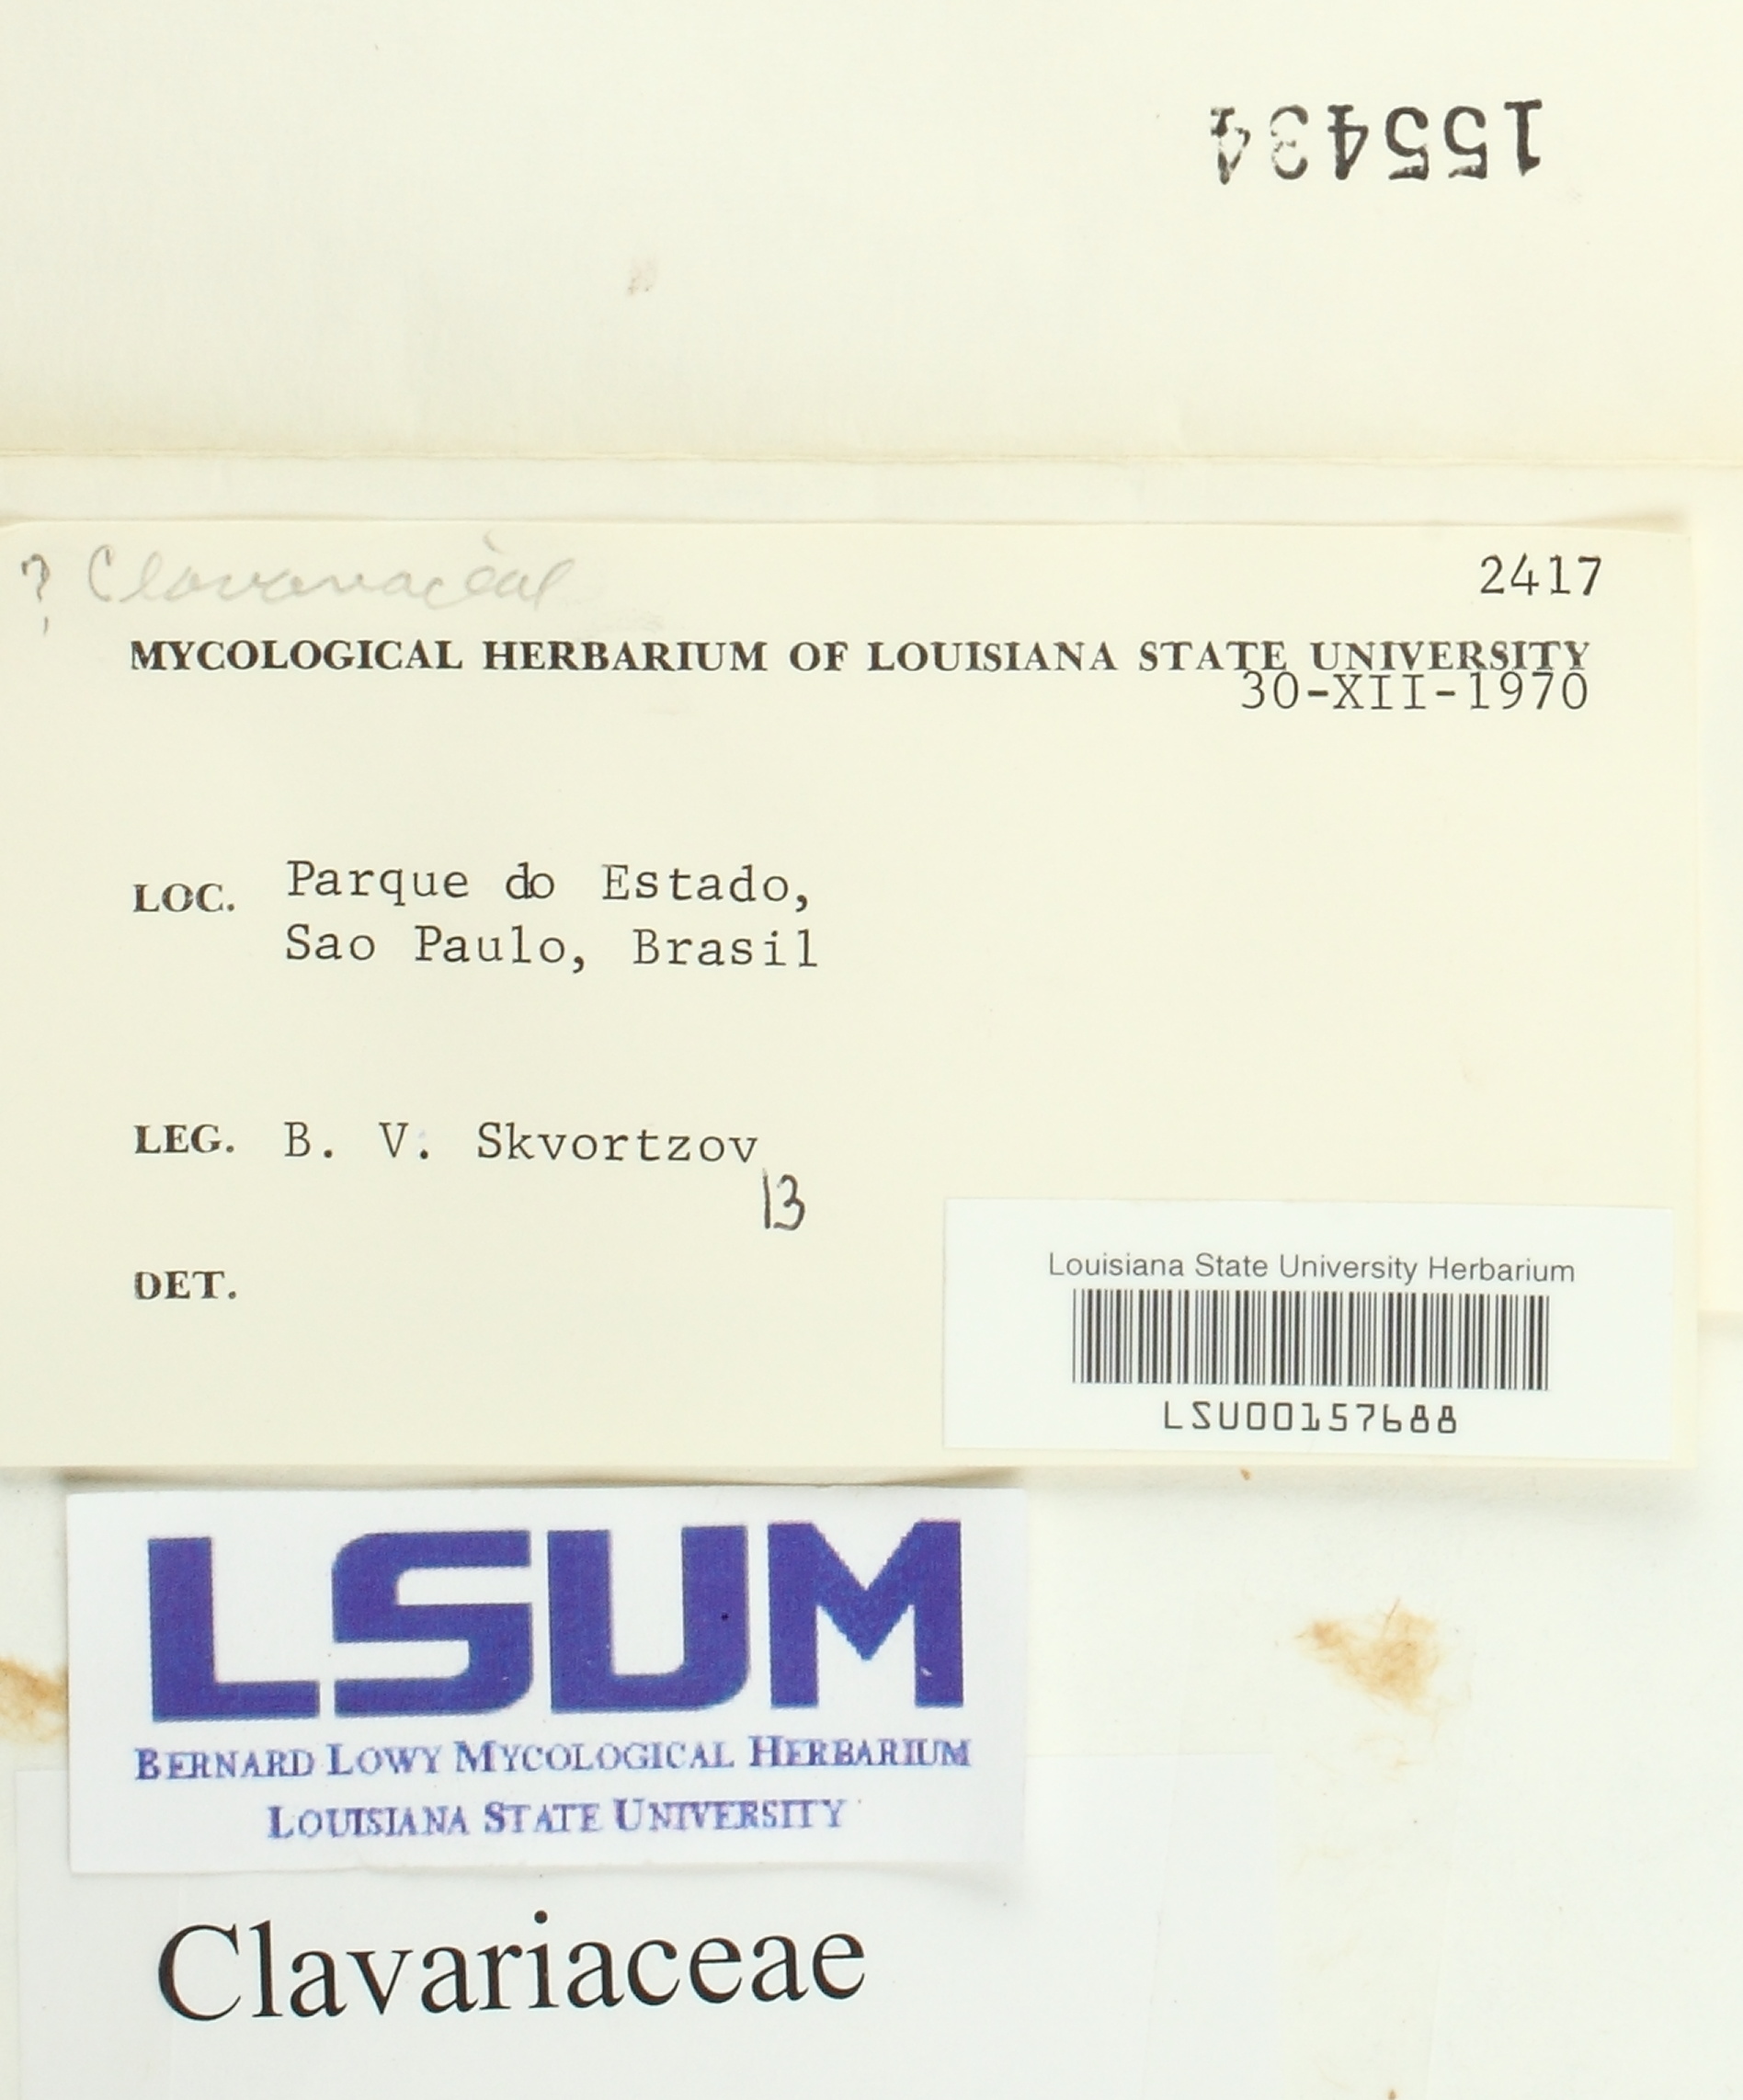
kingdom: Fungi
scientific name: Fungi
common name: Fungi
